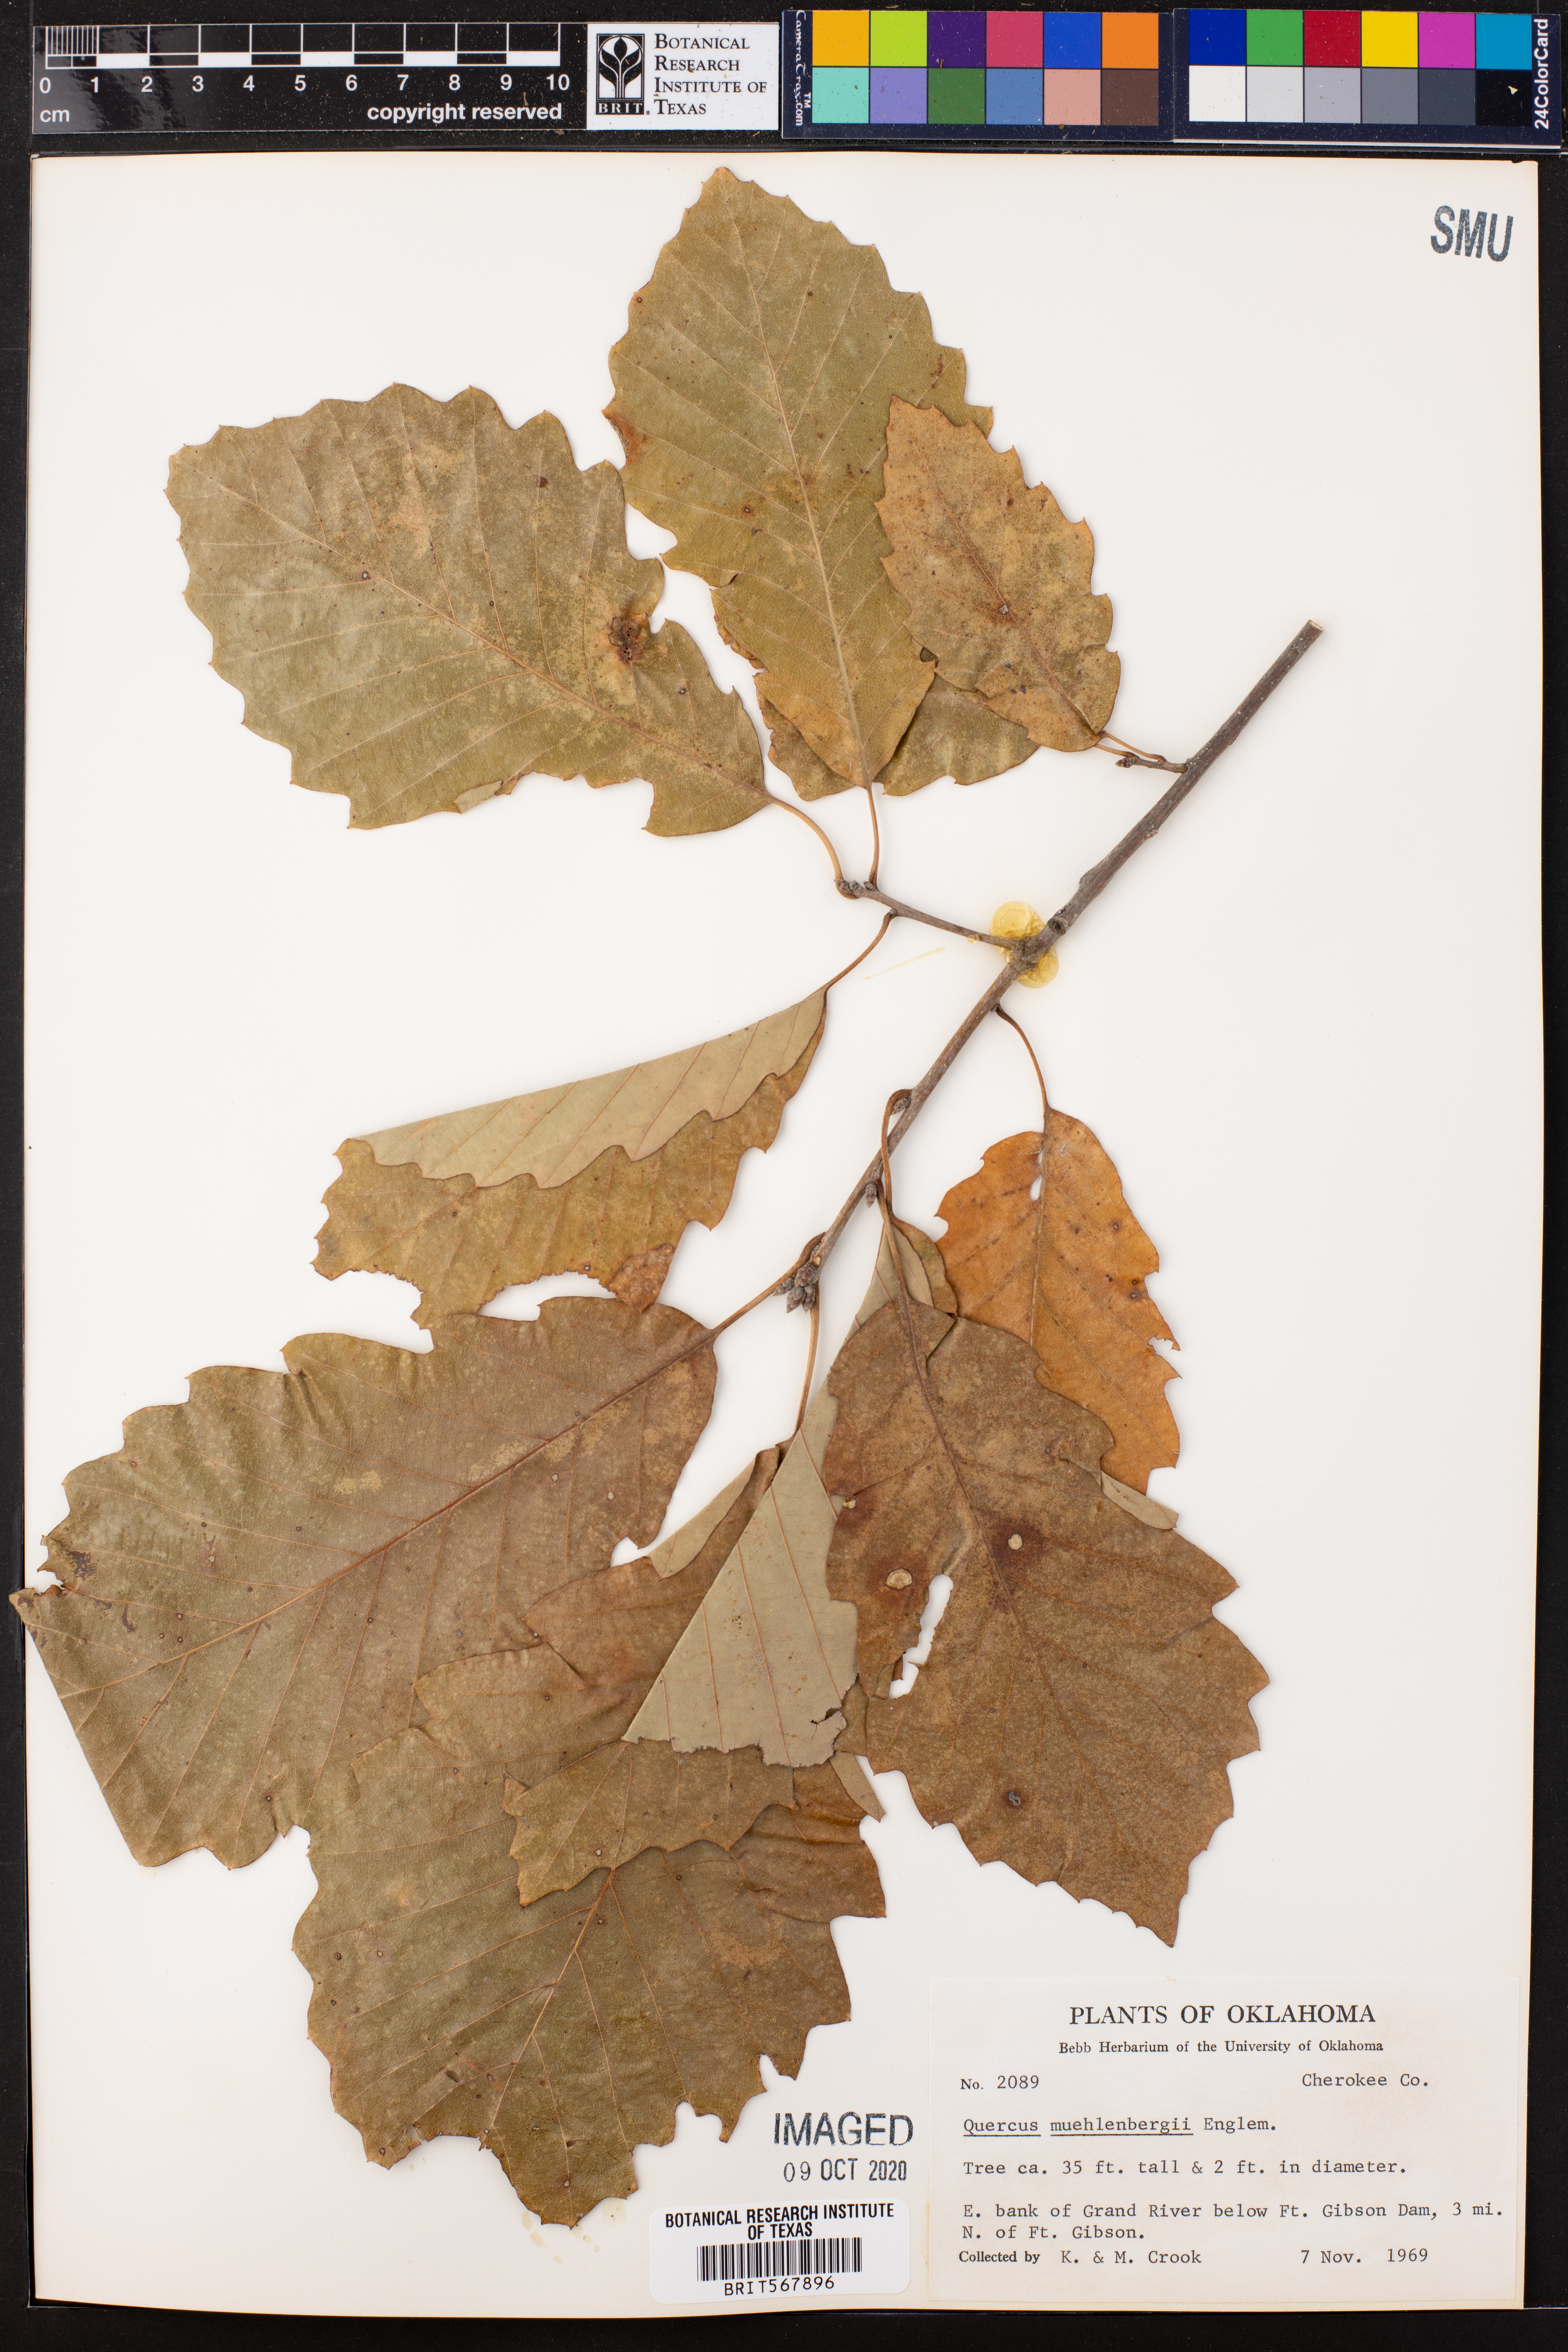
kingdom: Plantae
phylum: Tracheophyta
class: Magnoliopsida
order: Fagales
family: Fagaceae
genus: Quercus
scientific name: Quercus muehlenbergii
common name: Chinkapin oak
